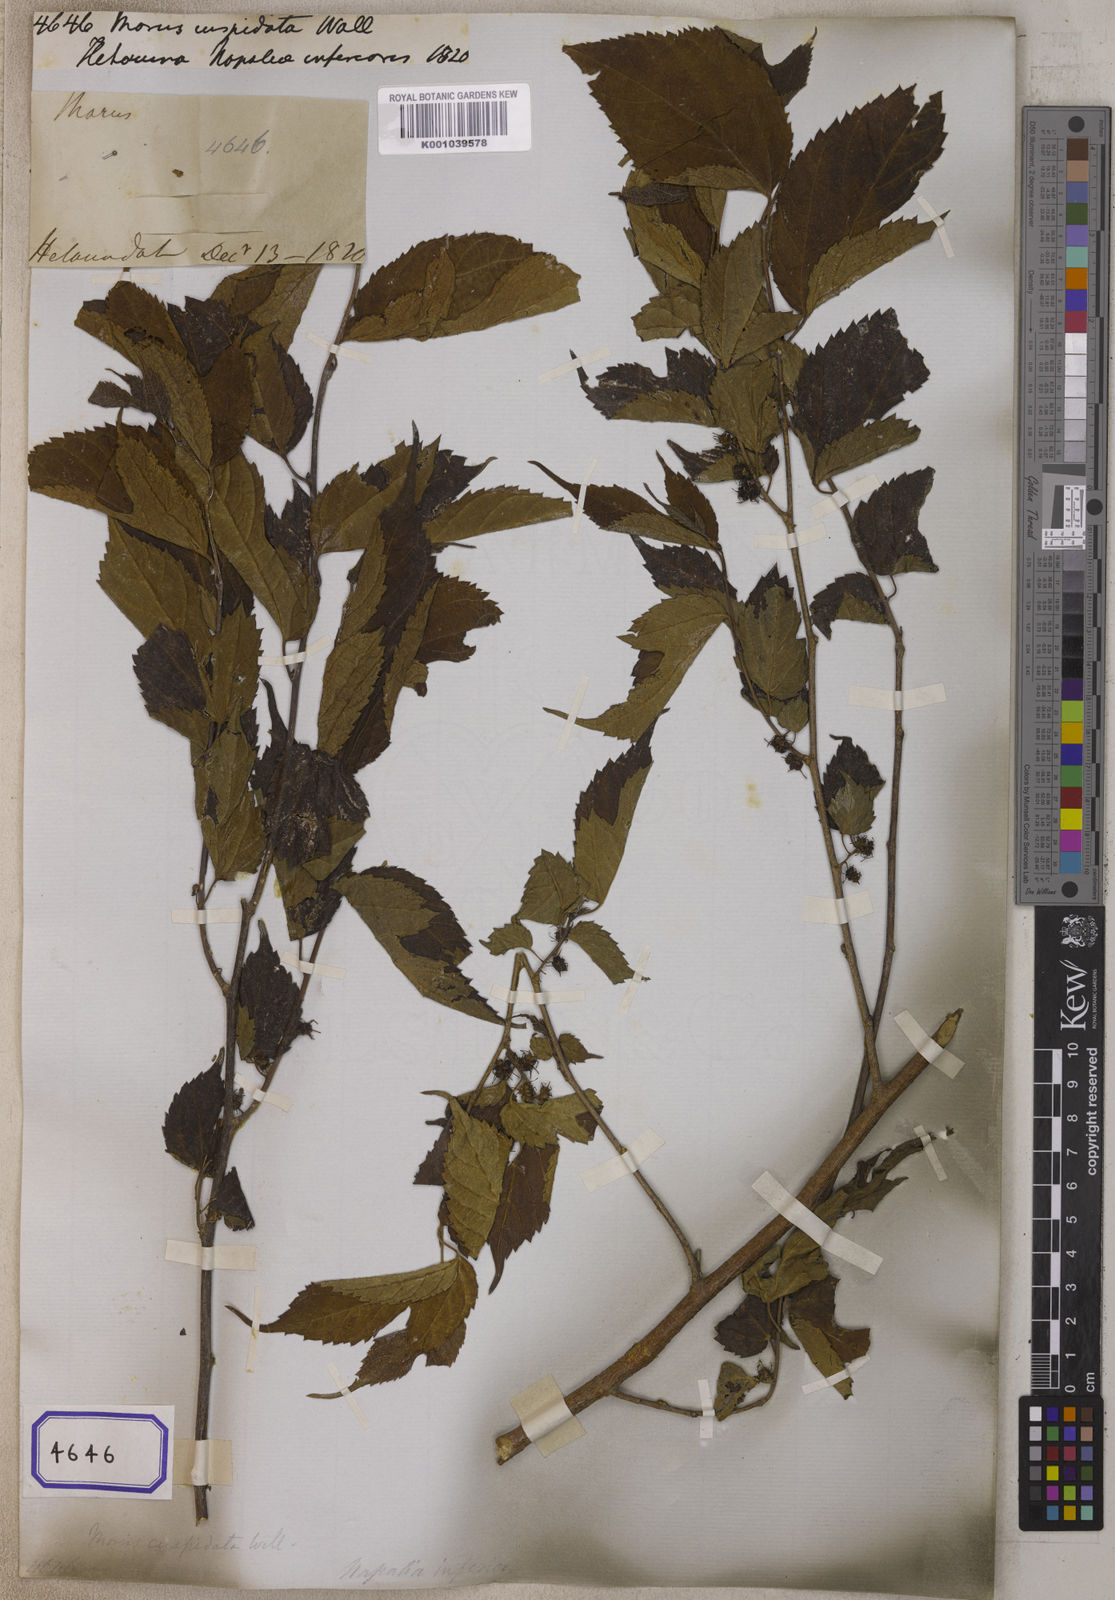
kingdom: Plantae
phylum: Tracheophyta
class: Magnoliopsida
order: Rosales
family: Moraceae
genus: Morus
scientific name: Morus indica
